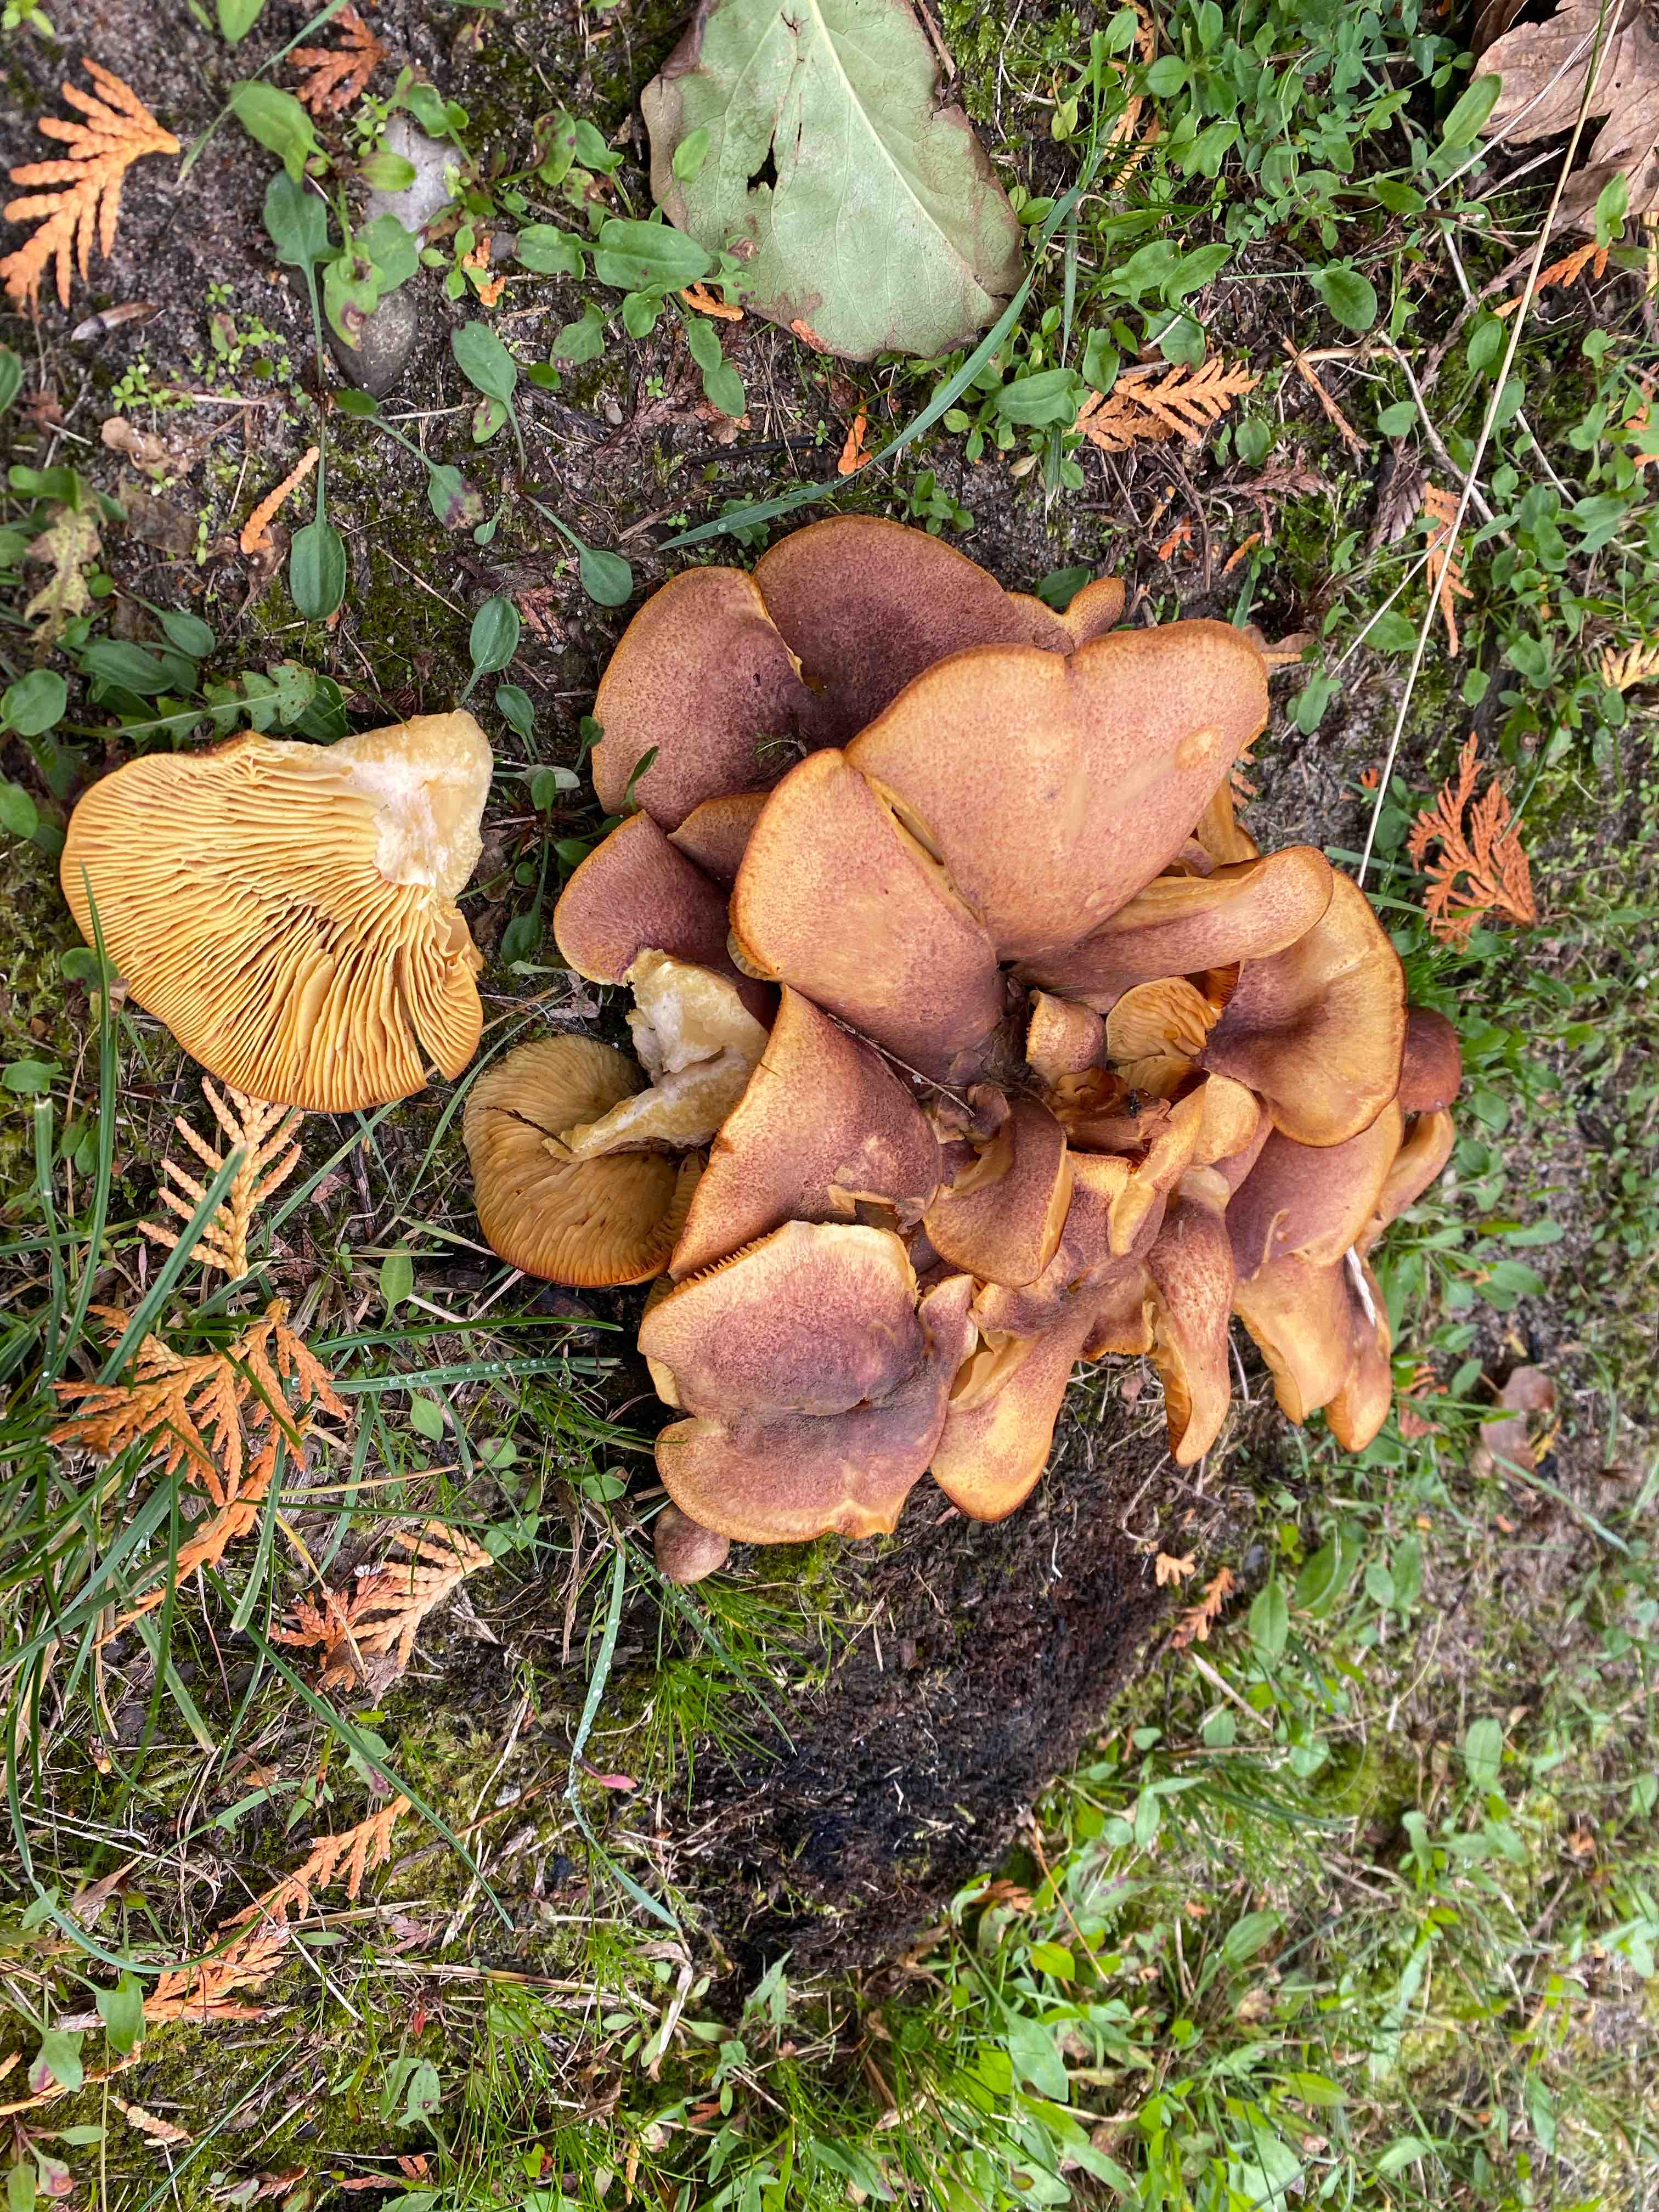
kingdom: Fungi
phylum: Basidiomycota
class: Agaricomycetes
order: Agaricales
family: Tricholomataceae
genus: Tricholomopsis
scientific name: Tricholomopsis rutilans
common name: purpur-væbnerhat
